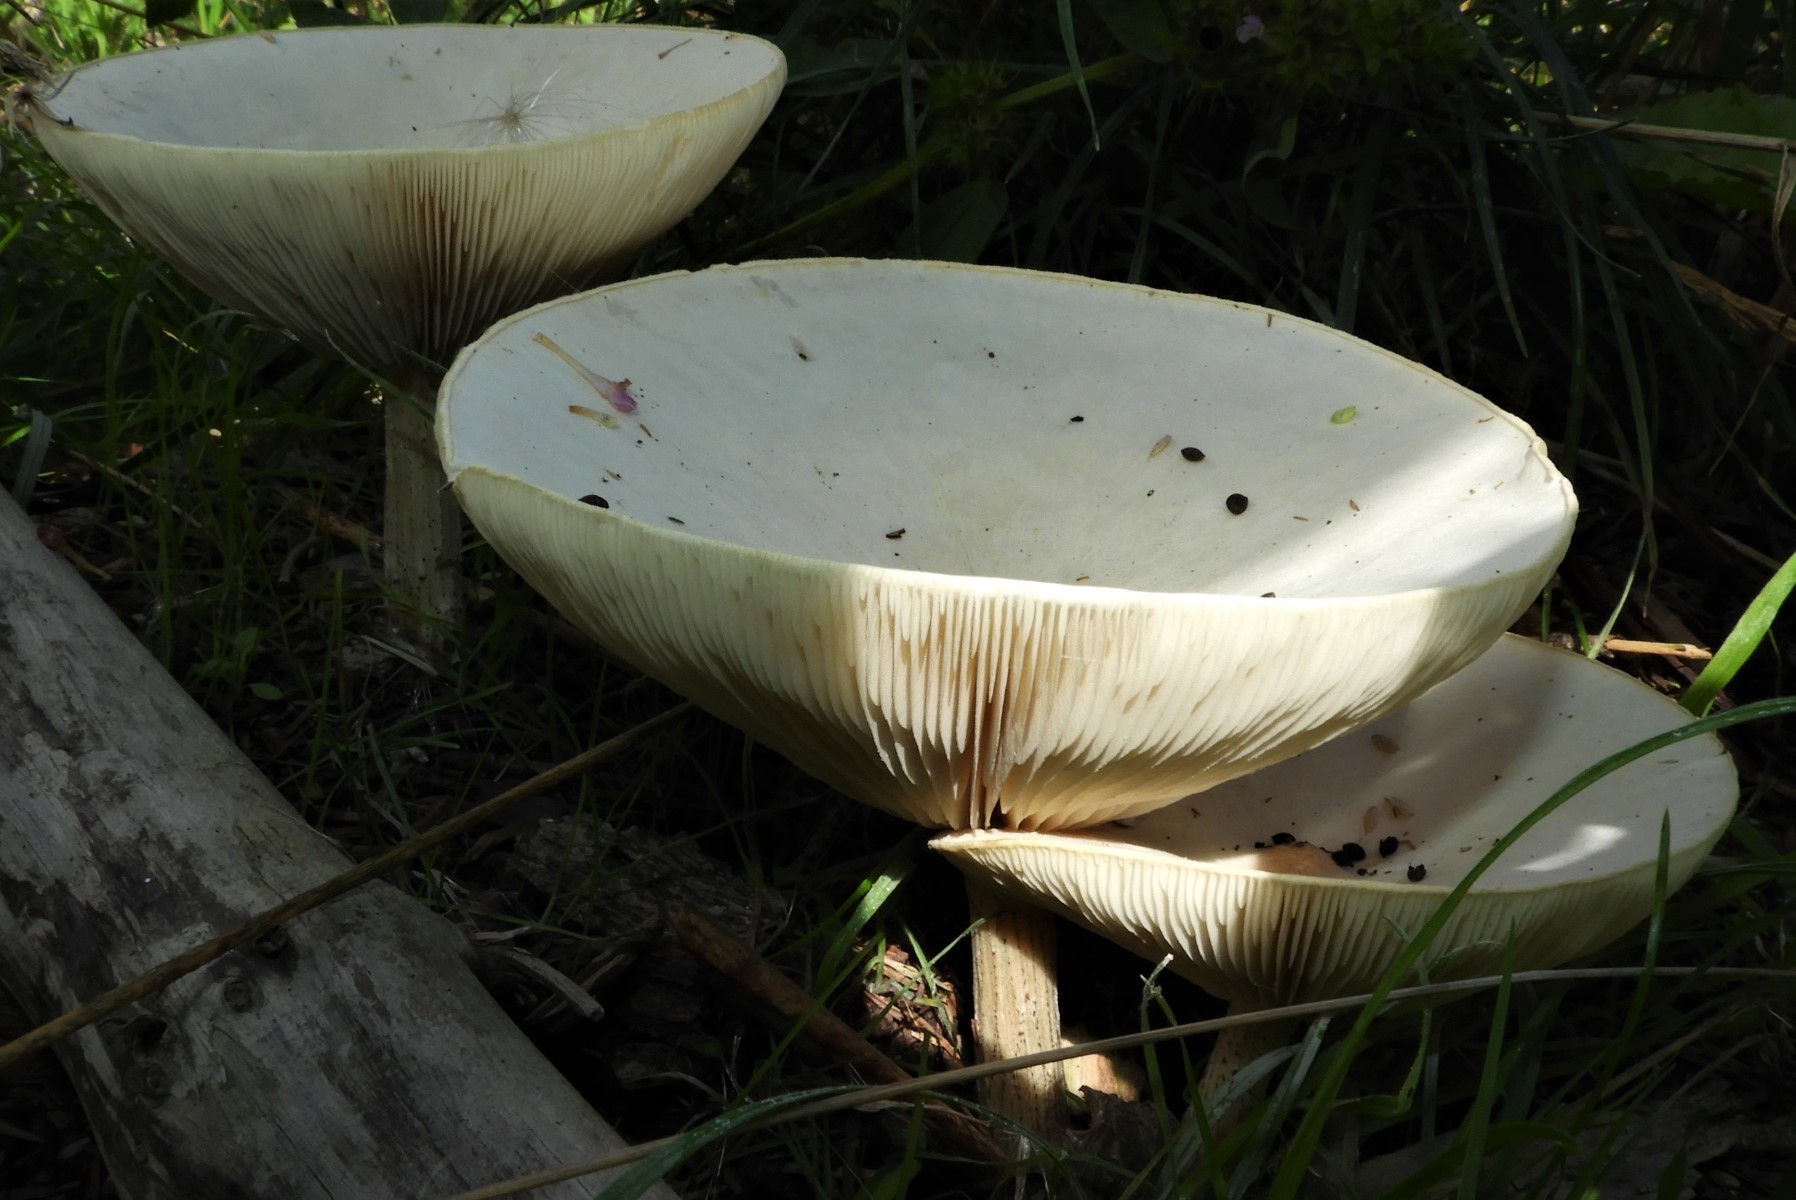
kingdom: Fungi
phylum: Basidiomycota
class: Agaricomycetes
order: Agaricales
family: Tricholomataceae
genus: Melanoleuca
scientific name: Melanoleuca verrucipes
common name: rufodet munkehat
